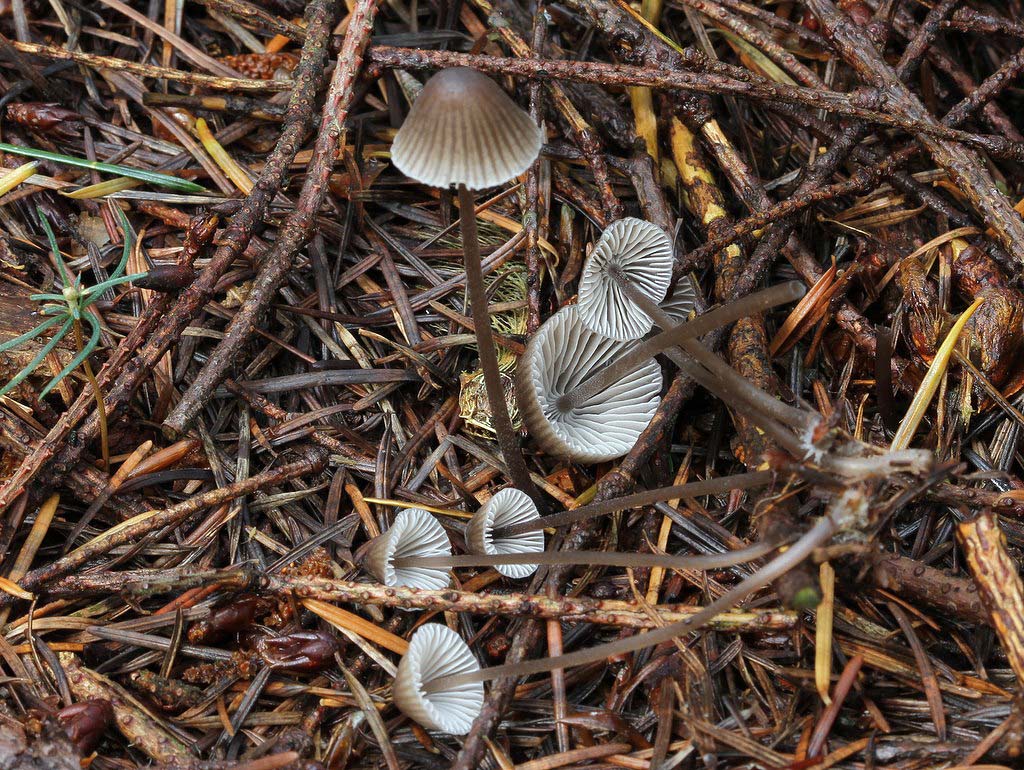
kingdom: Fungi
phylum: Basidiomycota
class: Agaricomycetes
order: Agaricales
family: Mycenaceae
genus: Mycena
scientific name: Mycena leptocephala
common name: klor-huesvamp
